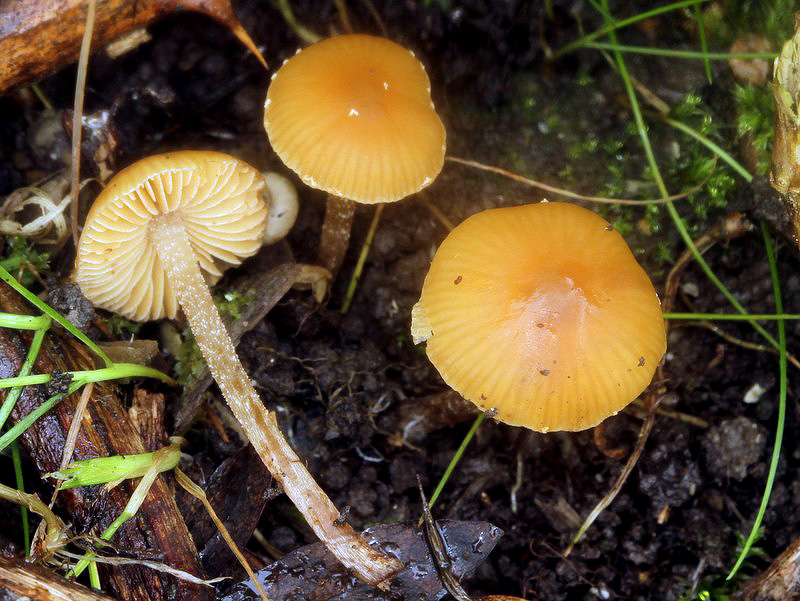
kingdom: Fungi
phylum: Basidiomycota
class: Agaricomycetes
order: Agaricales
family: Bolbitiaceae
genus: Conocybe
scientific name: Conocybe nemoralis
